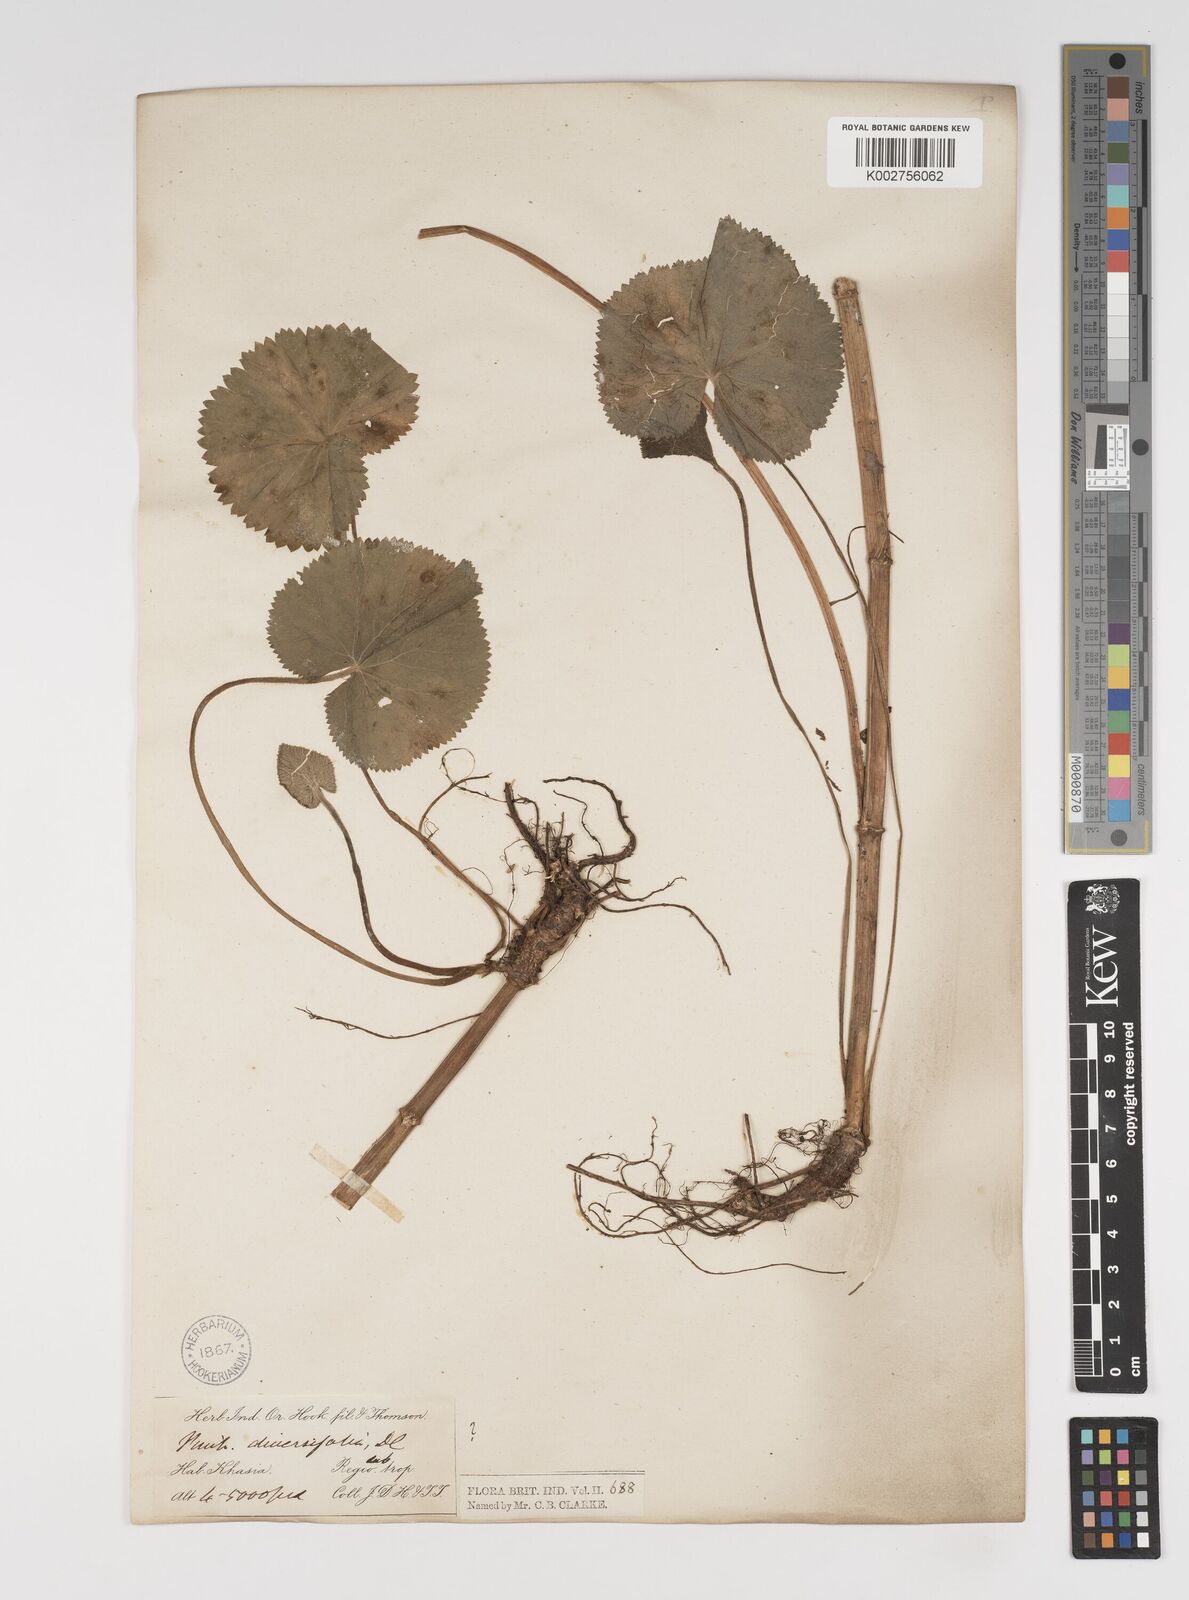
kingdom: Plantae
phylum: Tracheophyta
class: Magnoliopsida
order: Apiales
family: Apiaceae
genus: Pimpinella
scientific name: Pimpinella diversifolia
